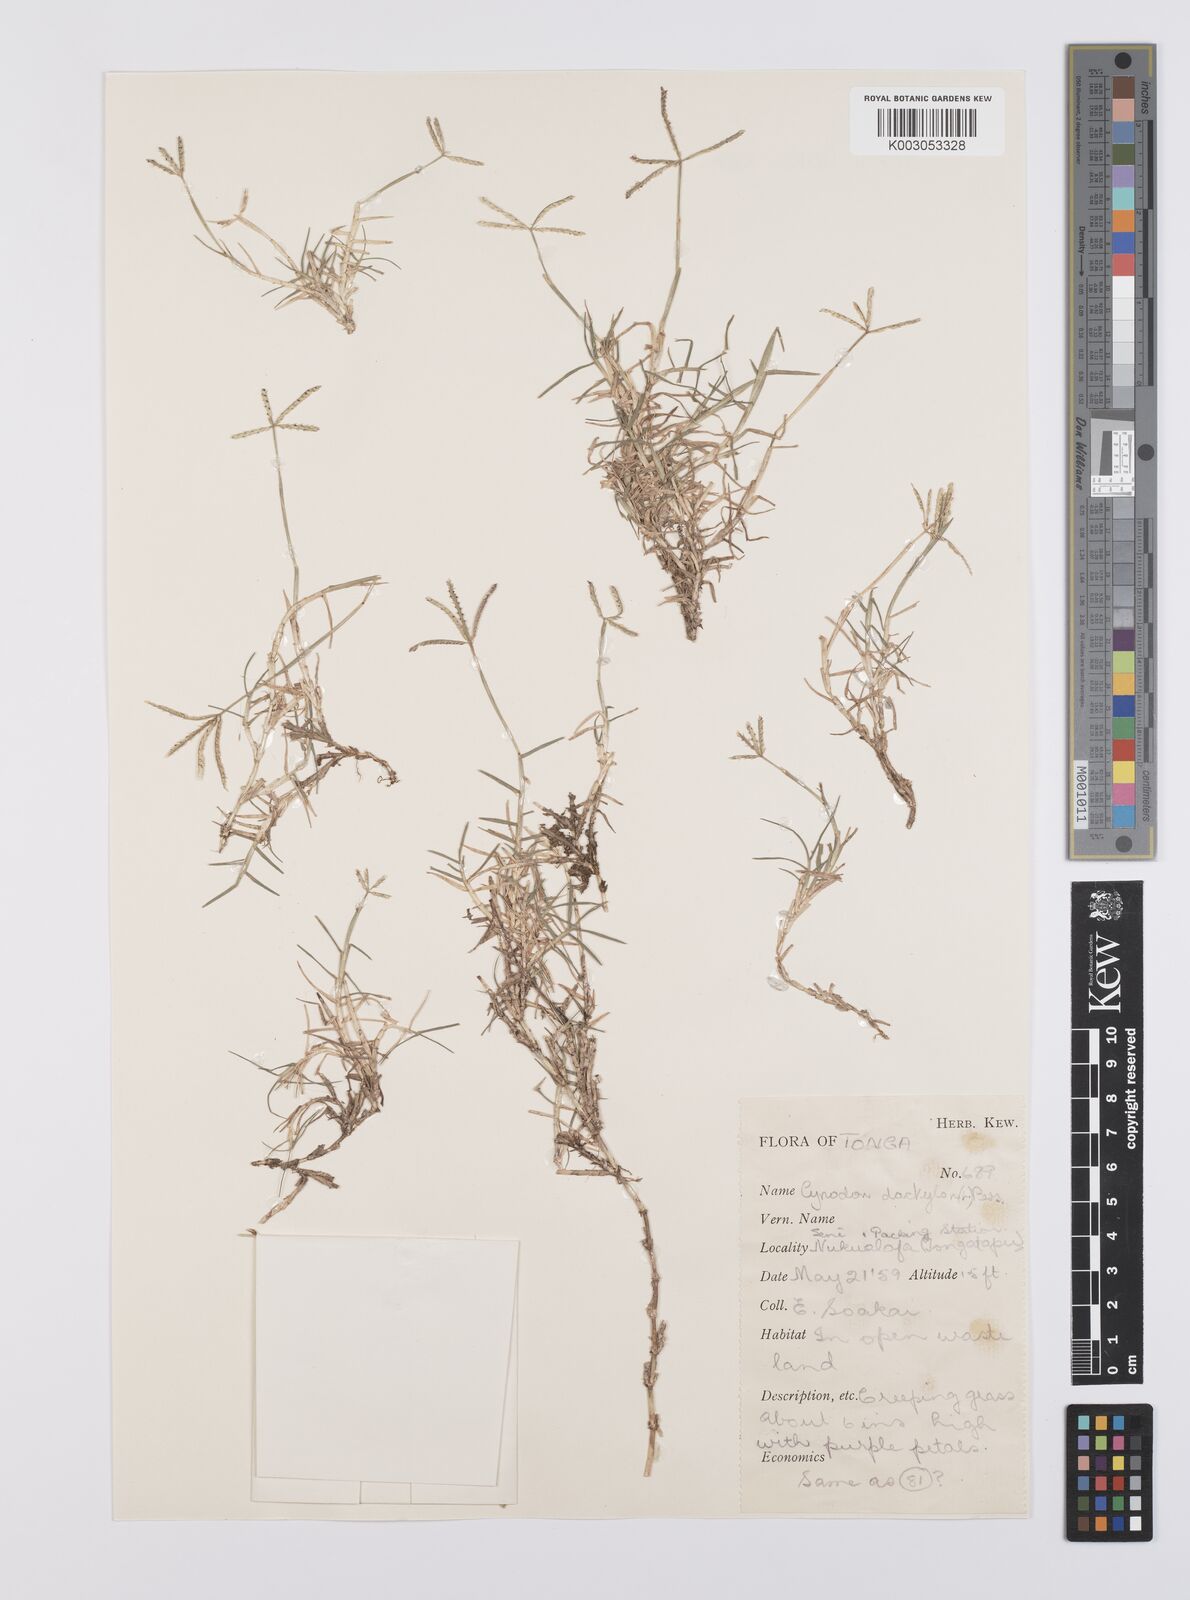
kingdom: Plantae
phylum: Tracheophyta
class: Liliopsida
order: Poales
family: Poaceae
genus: Cynodon
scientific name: Cynodon dactylon
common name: Bermuda grass
